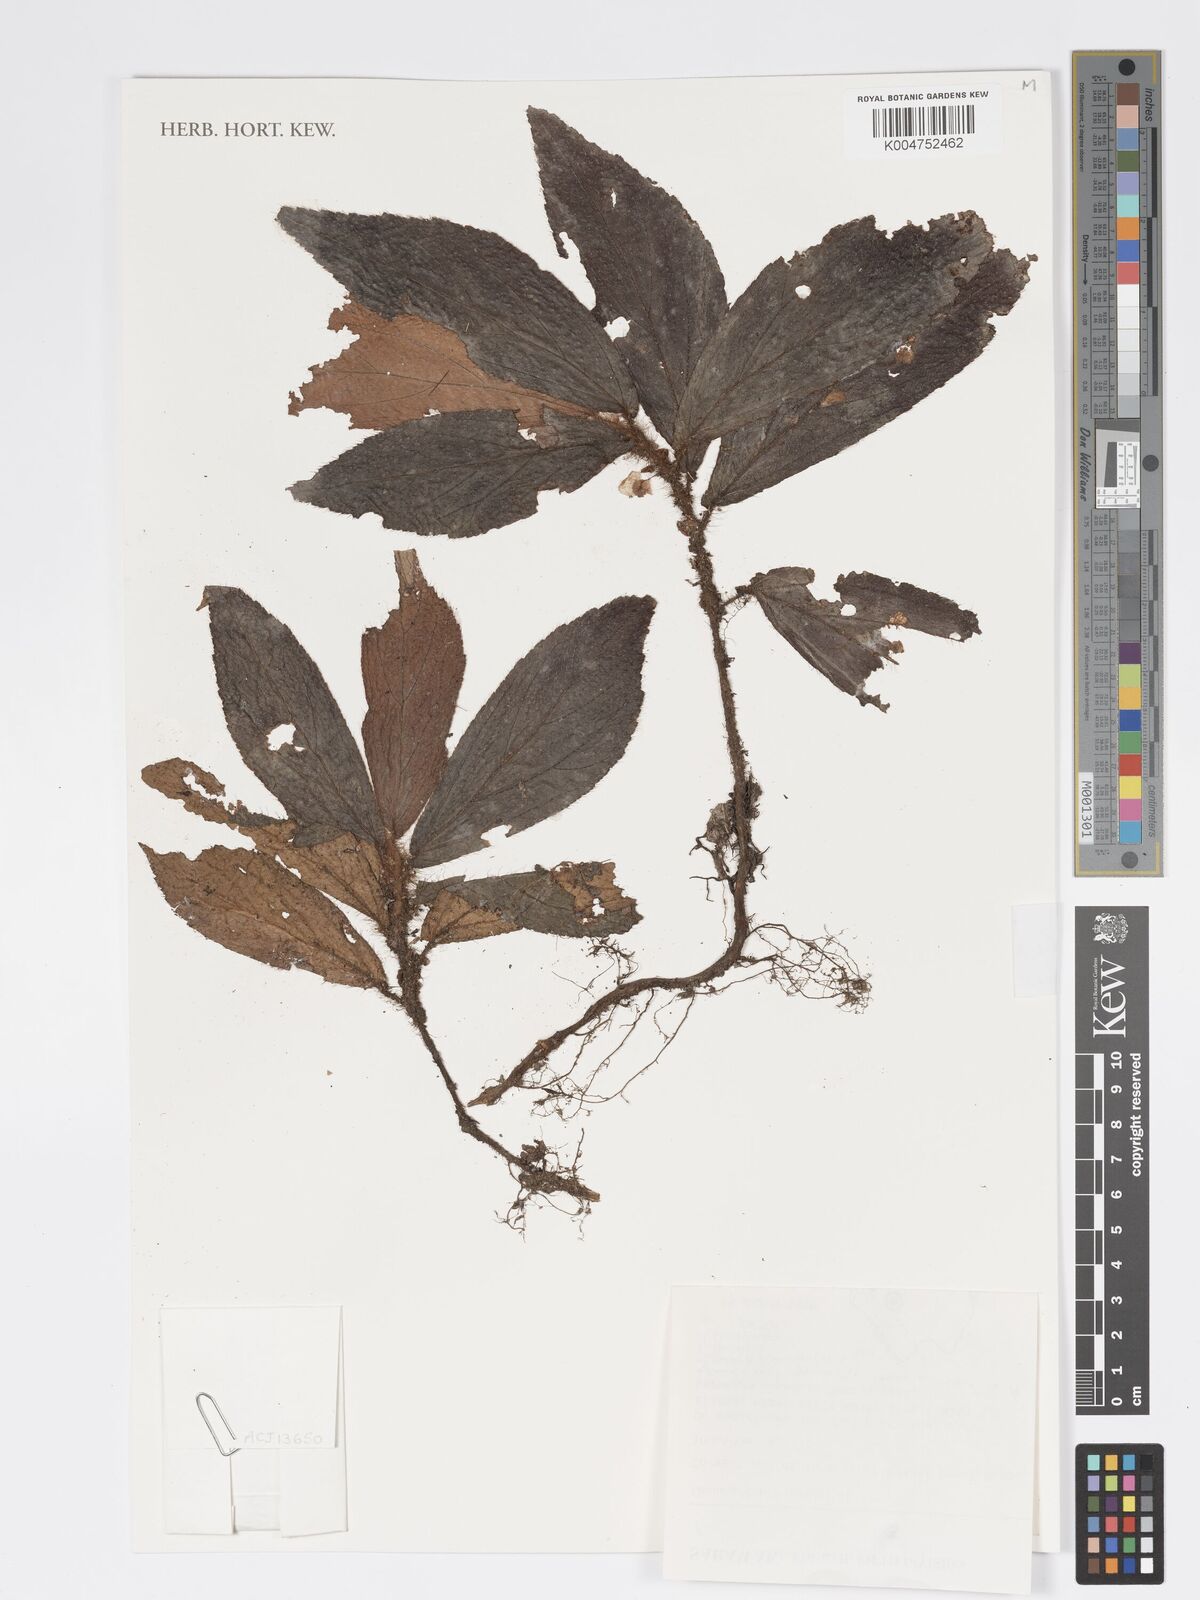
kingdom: Plantae
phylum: Tracheophyta
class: Magnoliopsida
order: Cucurbitales
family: Begoniaceae
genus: Begonia
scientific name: Begonia magentifolia
